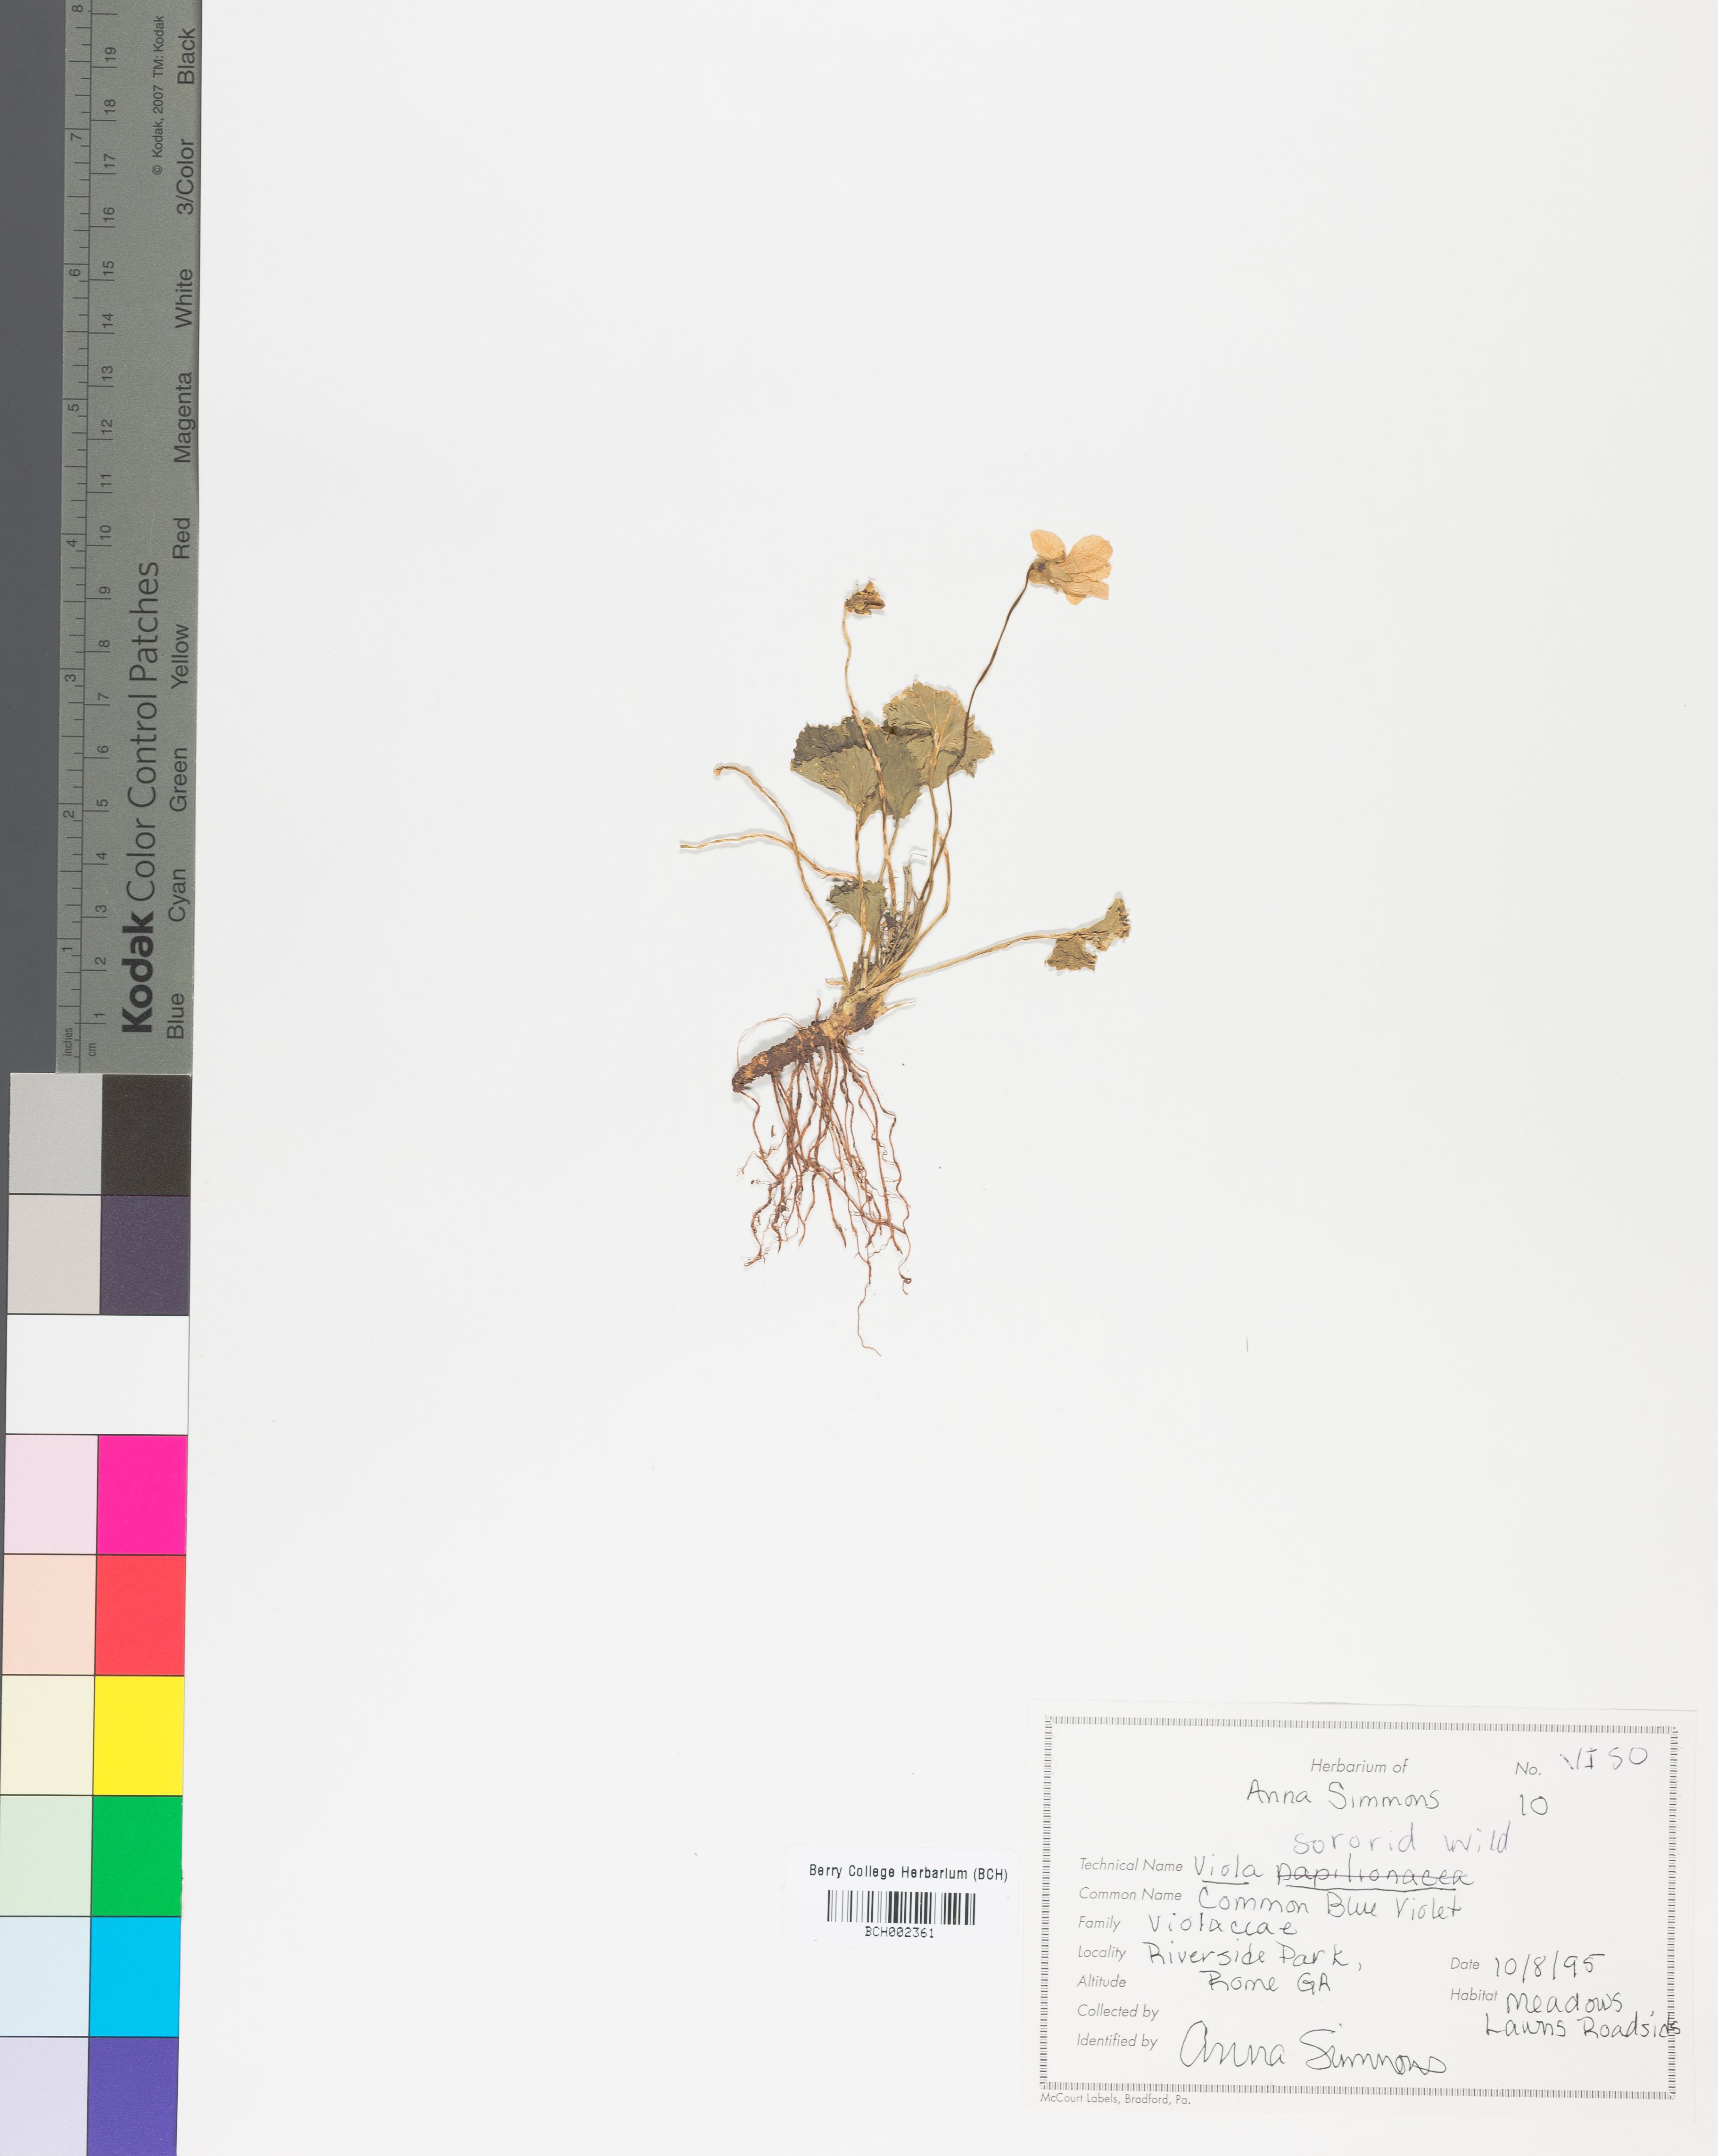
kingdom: Plantae
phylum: Tracheophyta
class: Magnoliopsida
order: Malpighiales
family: Violaceae
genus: Viola
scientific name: Viola sororia
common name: Dooryard violet
